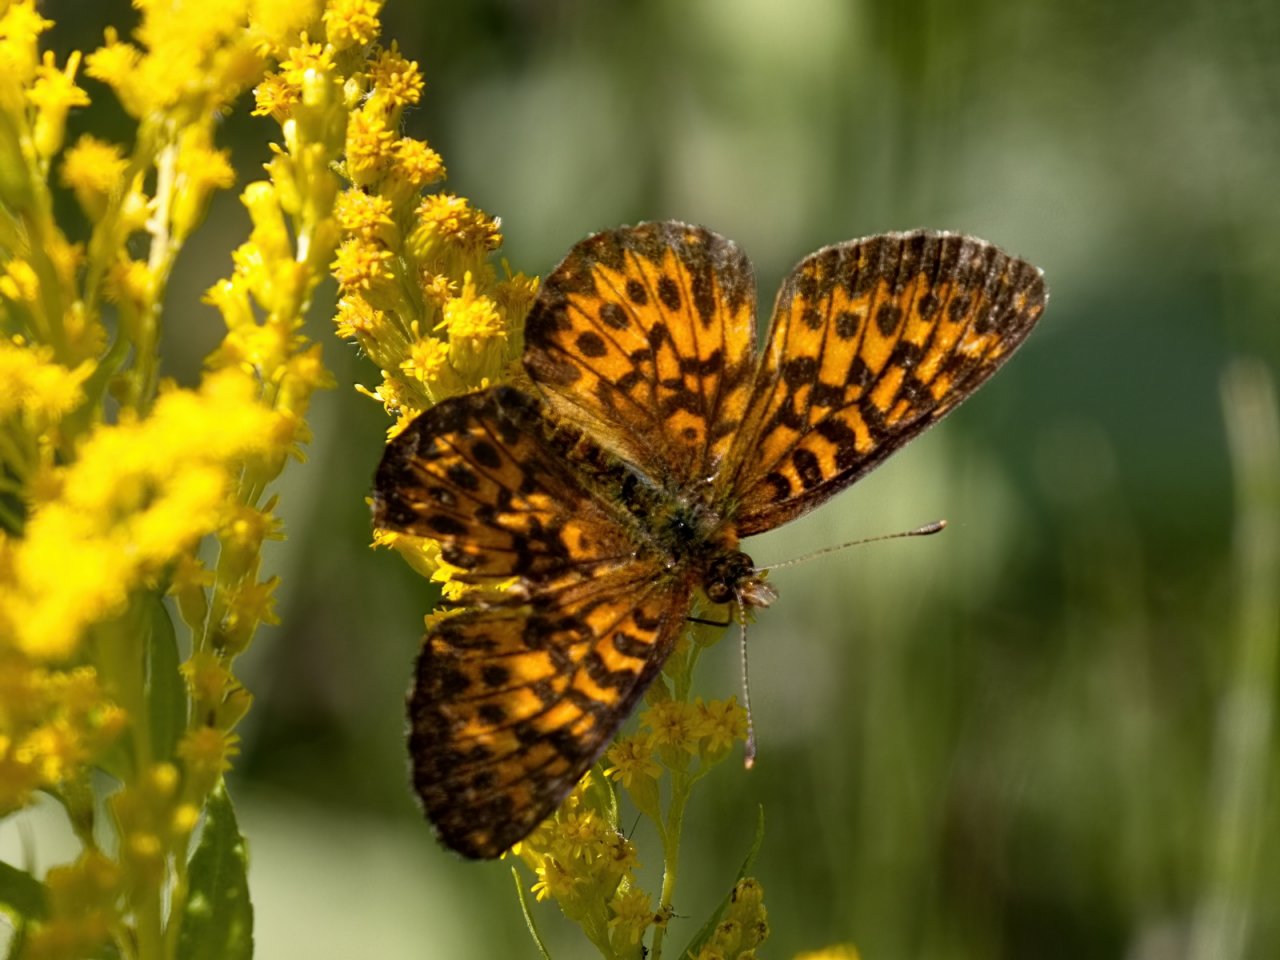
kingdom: Animalia
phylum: Arthropoda
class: Insecta
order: Lepidoptera
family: Nymphalidae
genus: Boloria
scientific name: Boloria chariclea
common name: Arctic Fritillary
